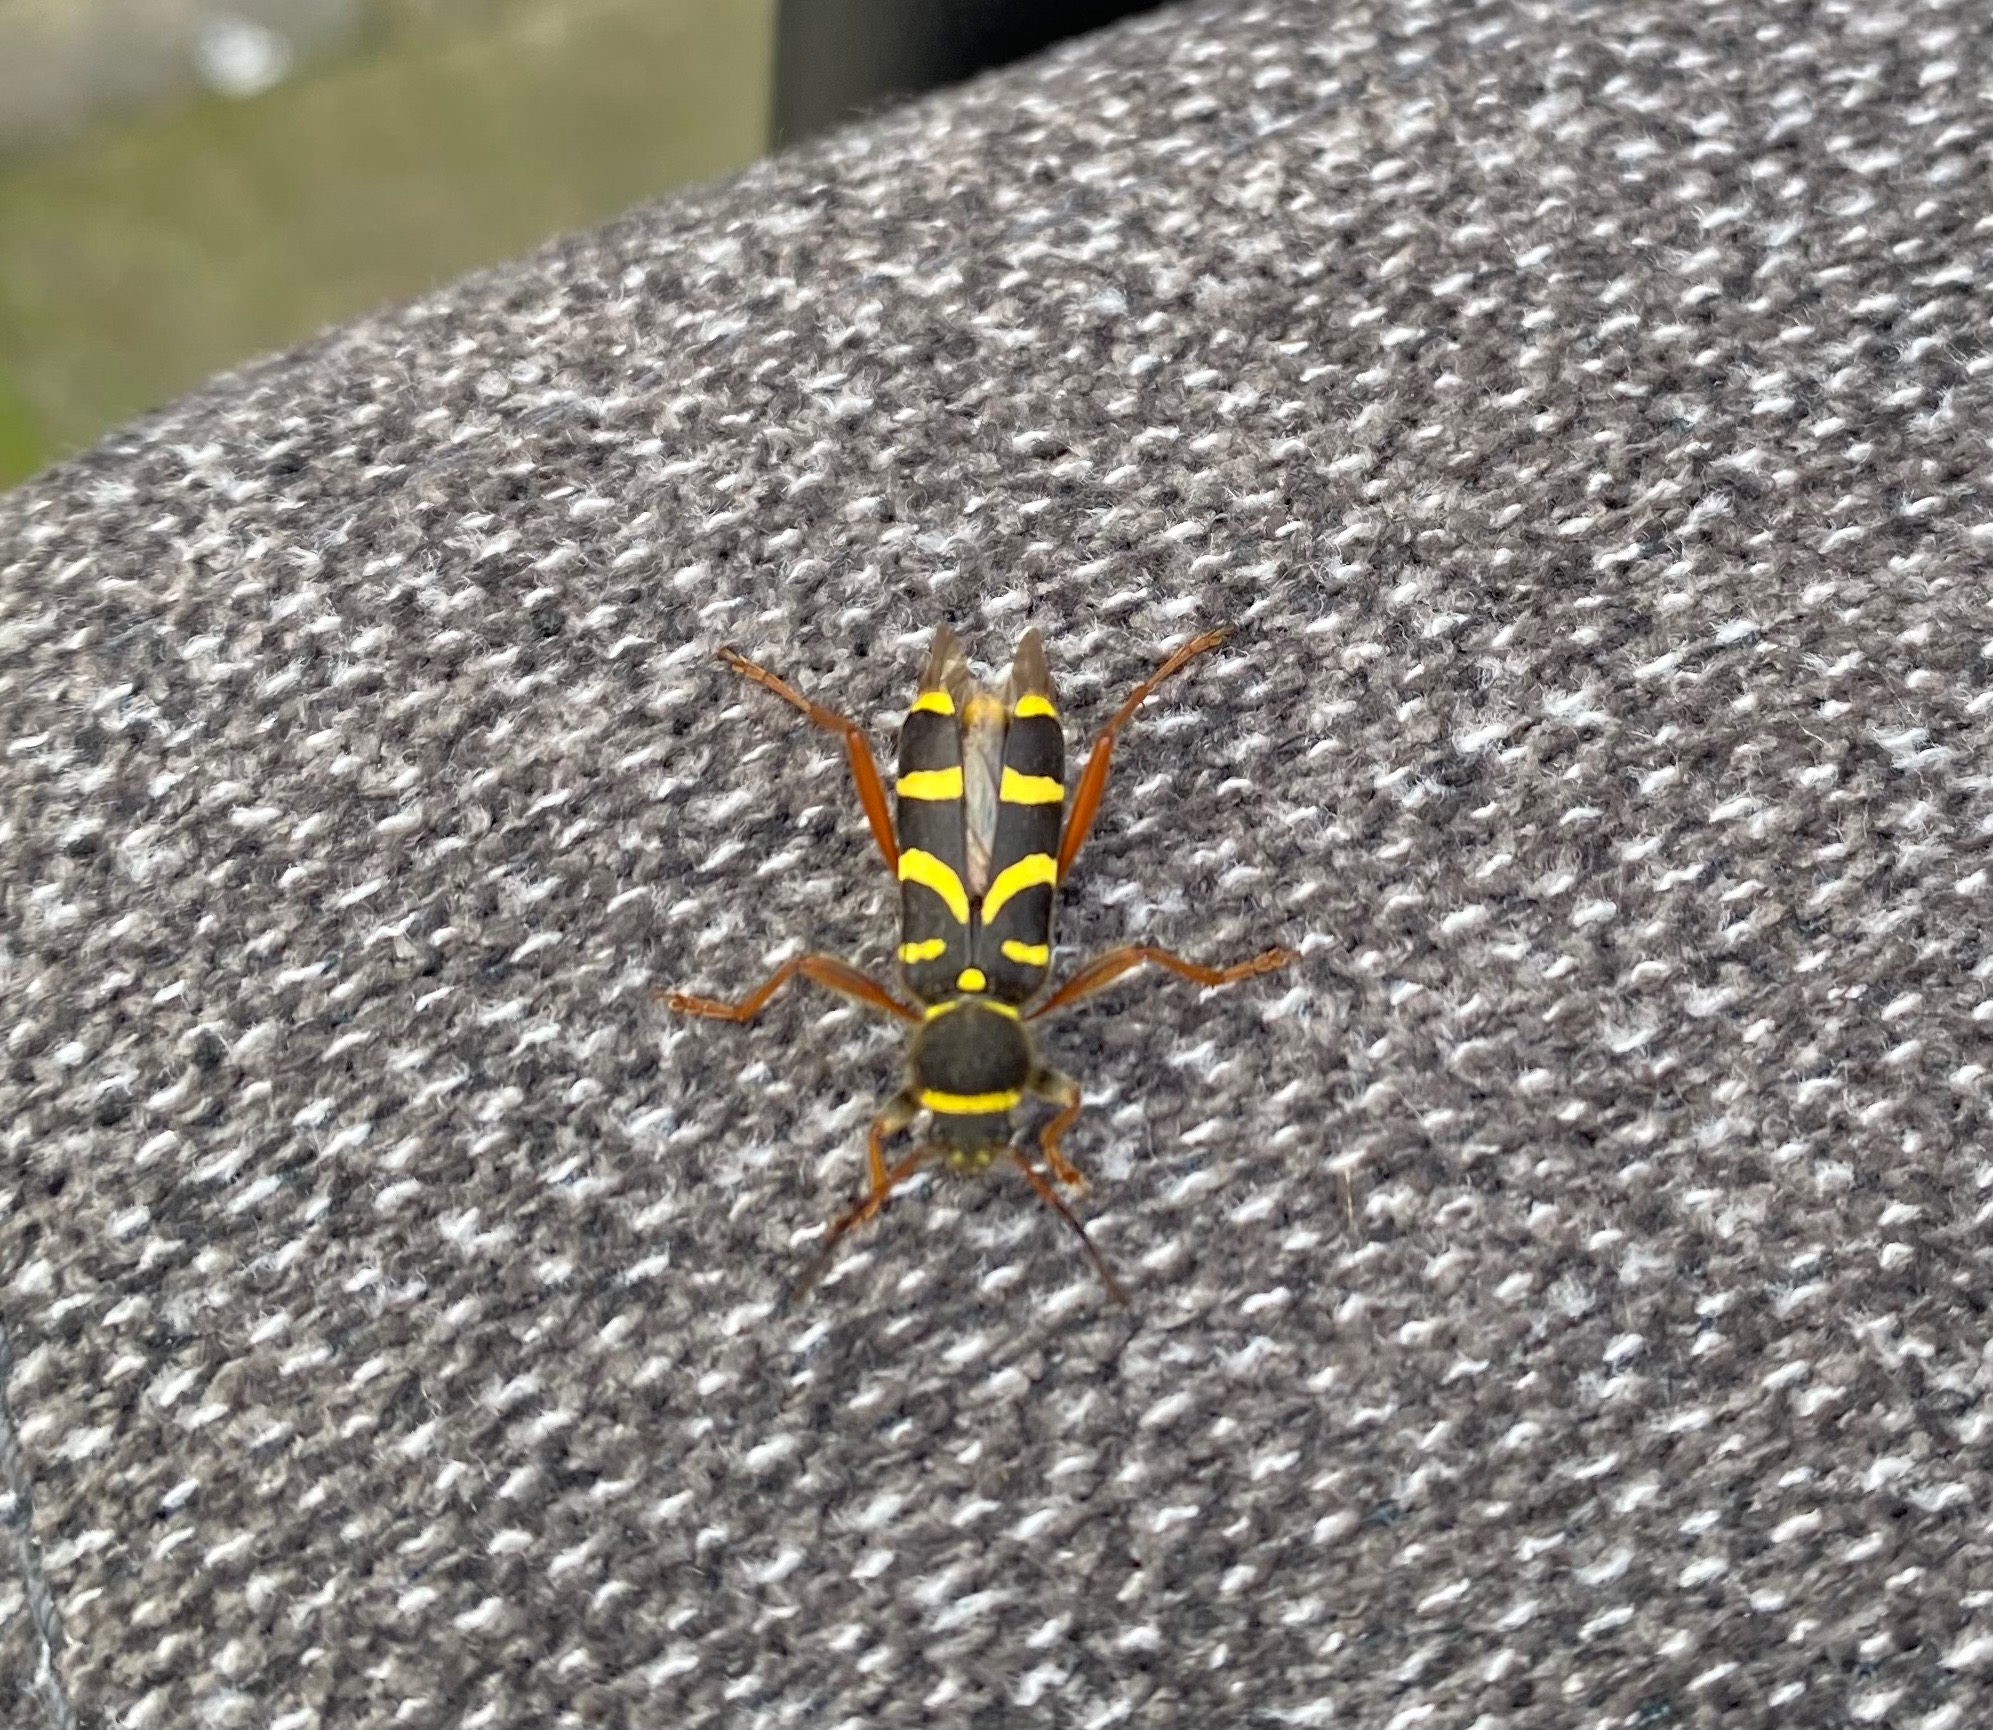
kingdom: Animalia
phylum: Arthropoda
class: Insecta
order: Coleoptera
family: Cerambycidae
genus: Clytus
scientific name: Clytus arietis
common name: Lille hvepsebuk
